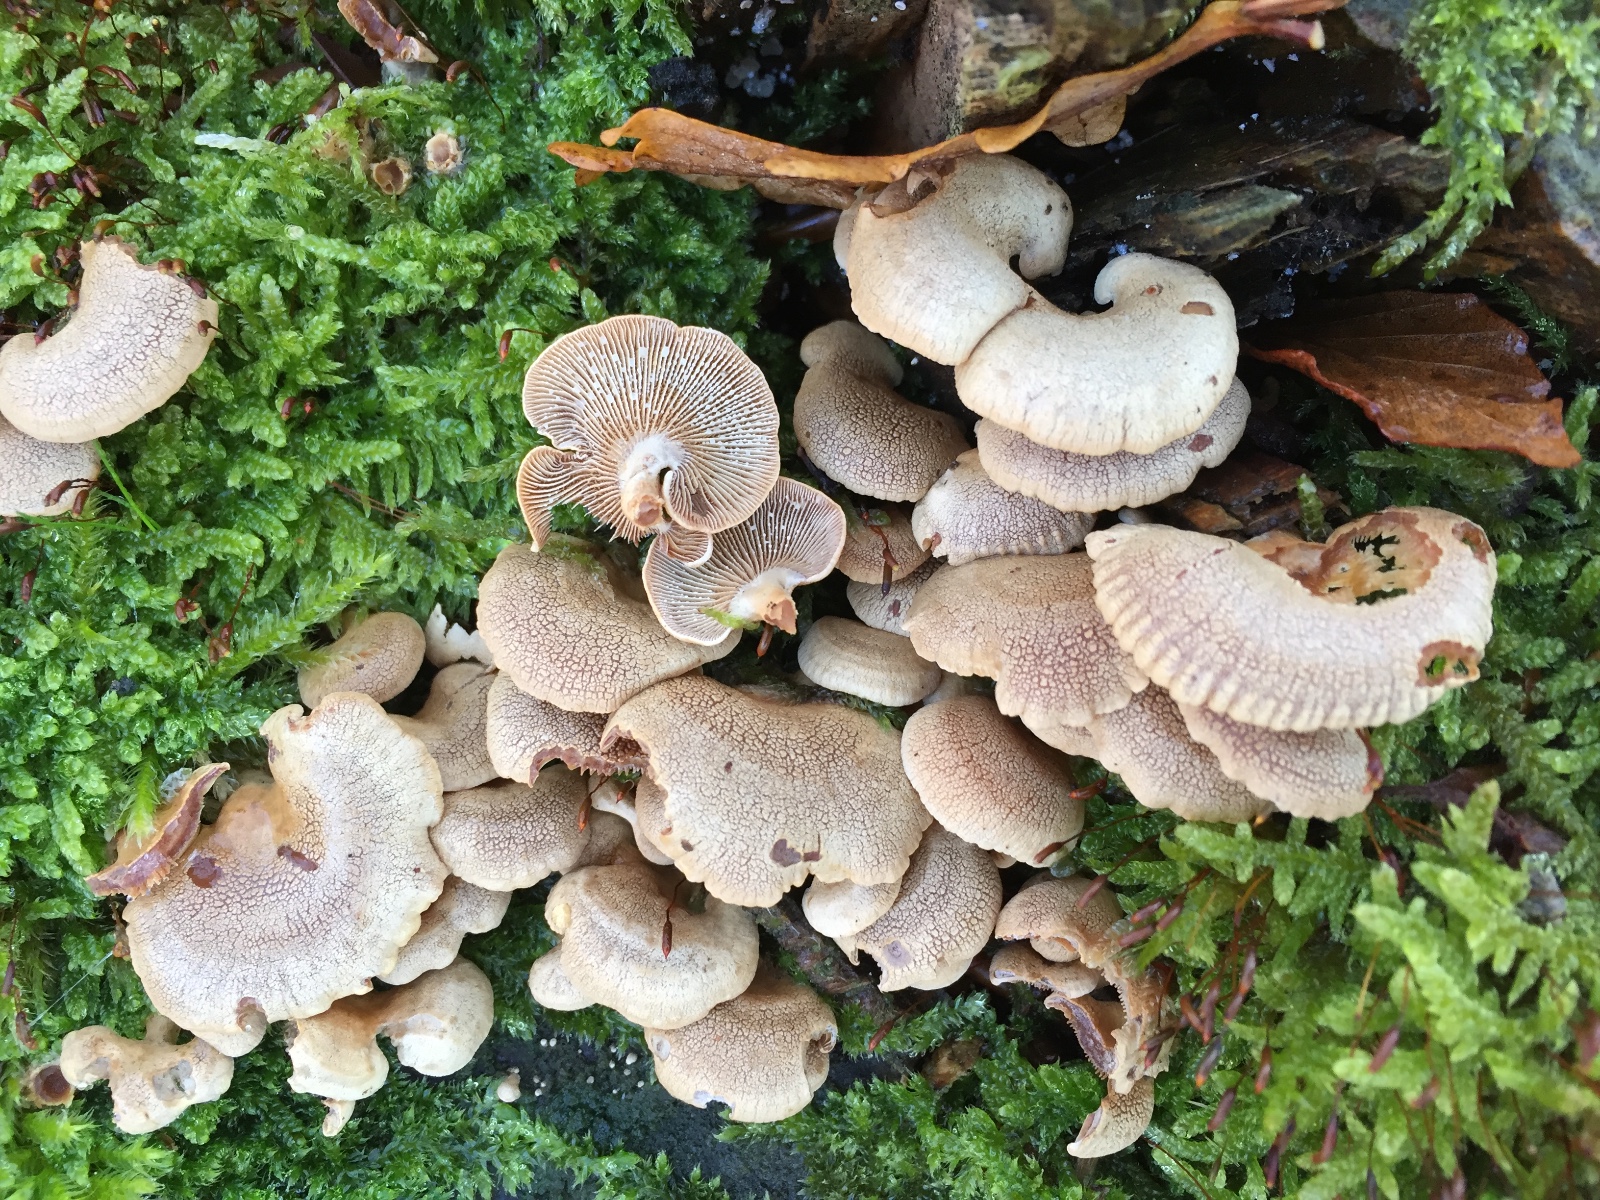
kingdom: Fungi
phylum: Basidiomycota
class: Agaricomycetes
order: Agaricales
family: Mycenaceae
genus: Panellus
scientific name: Panellus stipticus
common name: kliddet epaulethat
